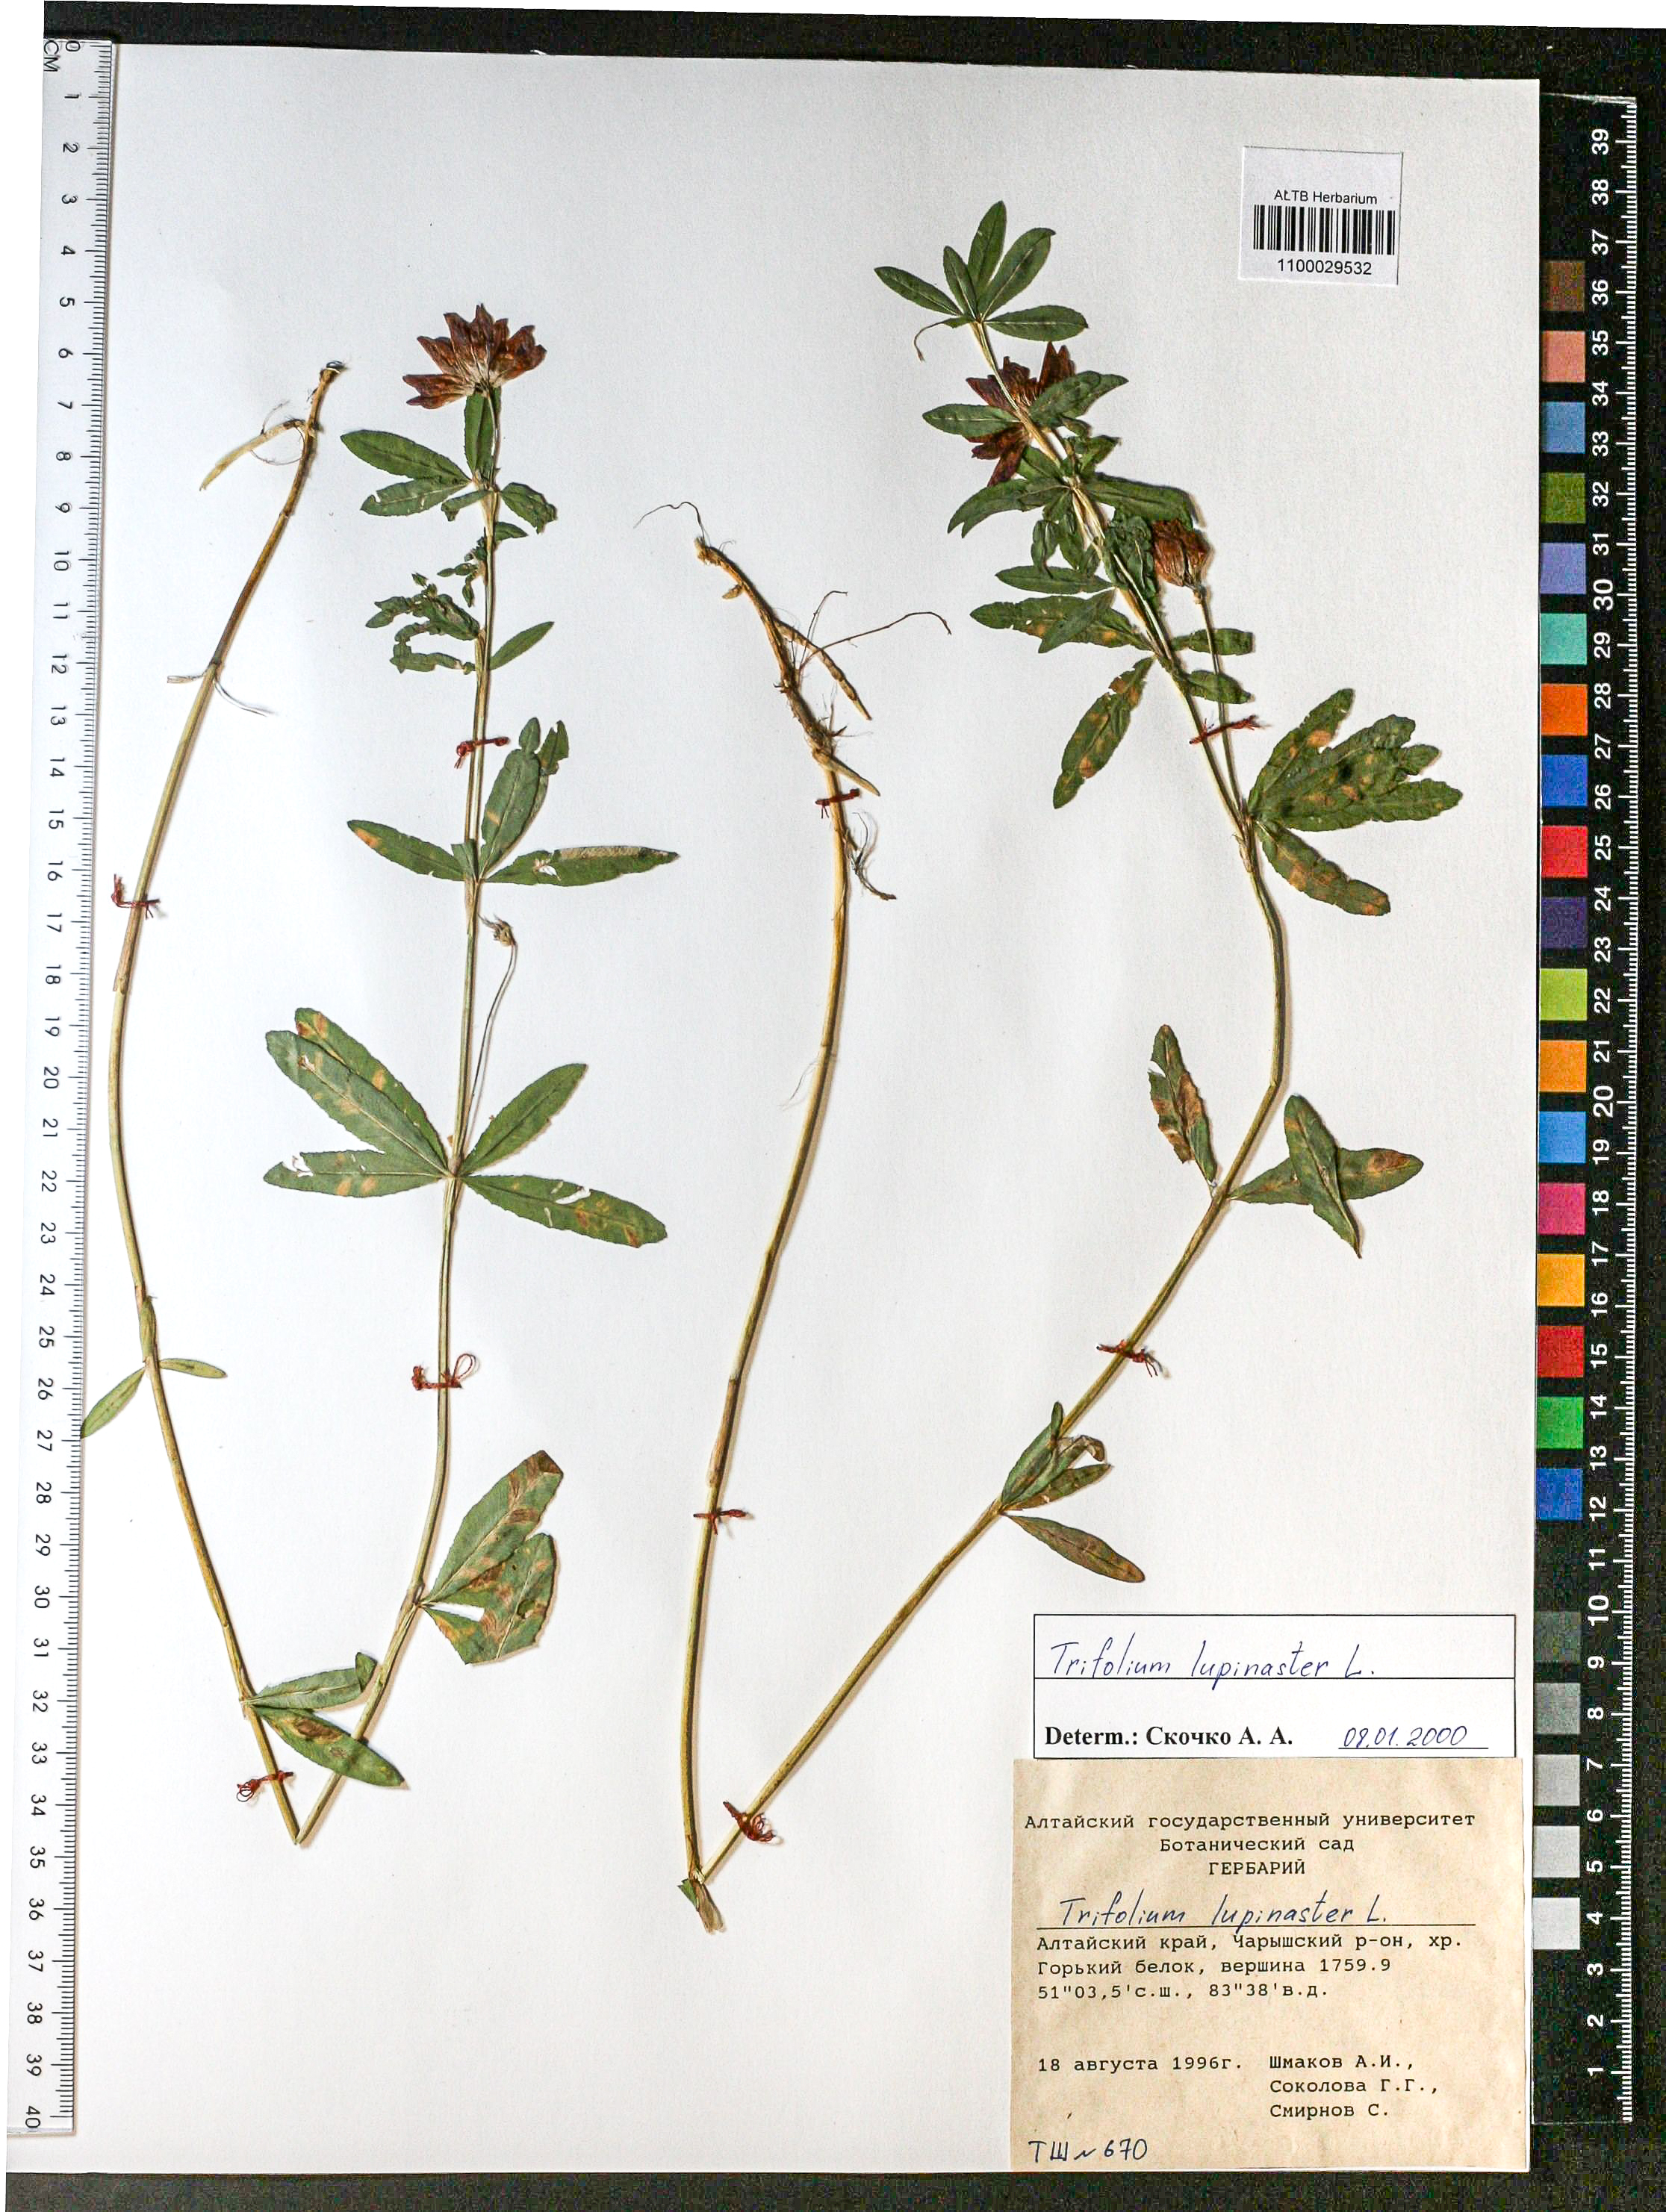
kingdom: Plantae
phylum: Tracheophyta
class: Magnoliopsida
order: Fabales
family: Fabaceae
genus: Trifolium
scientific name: Trifolium lupinaster
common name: Lupine clover
